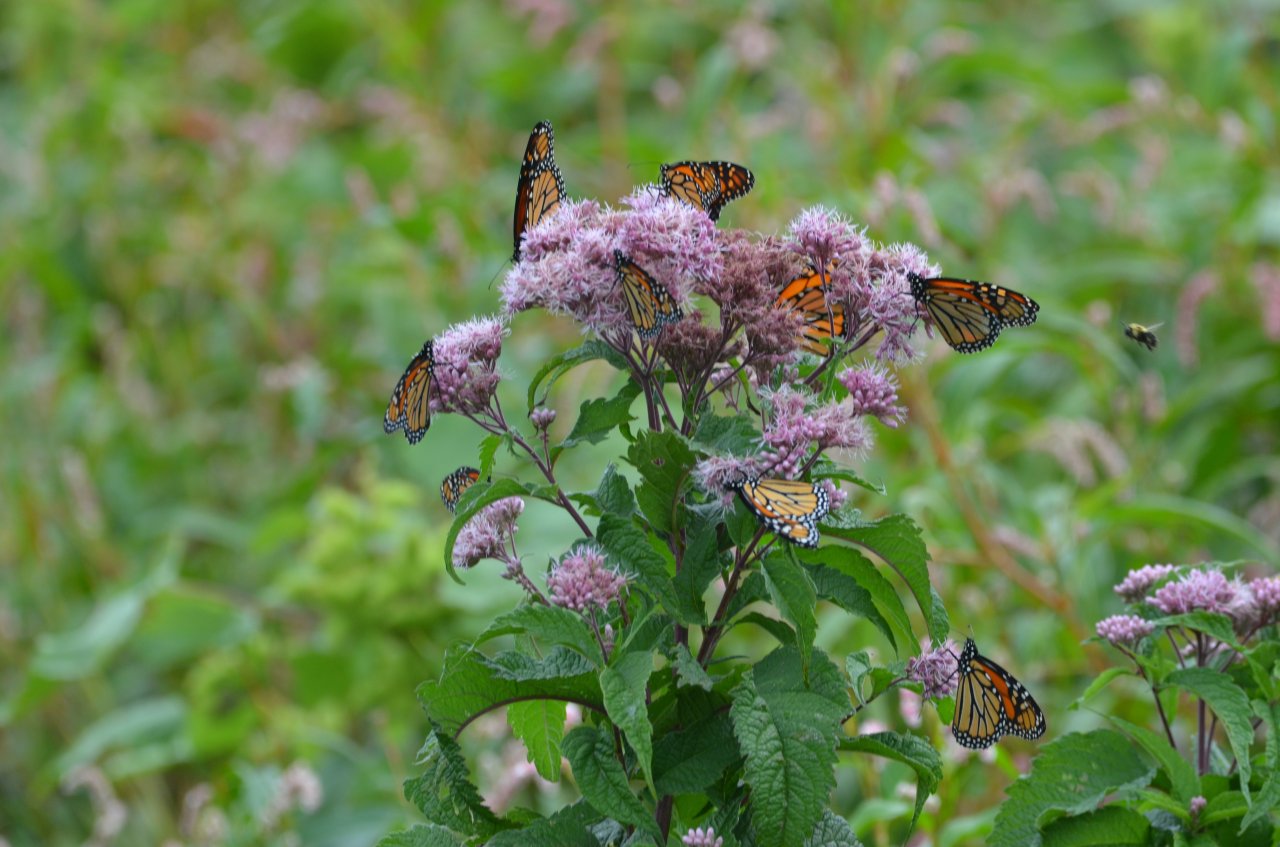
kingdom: Animalia
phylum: Arthropoda
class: Insecta
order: Lepidoptera
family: Nymphalidae
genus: Danaus
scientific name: Danaus plexippus
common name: Monarch
